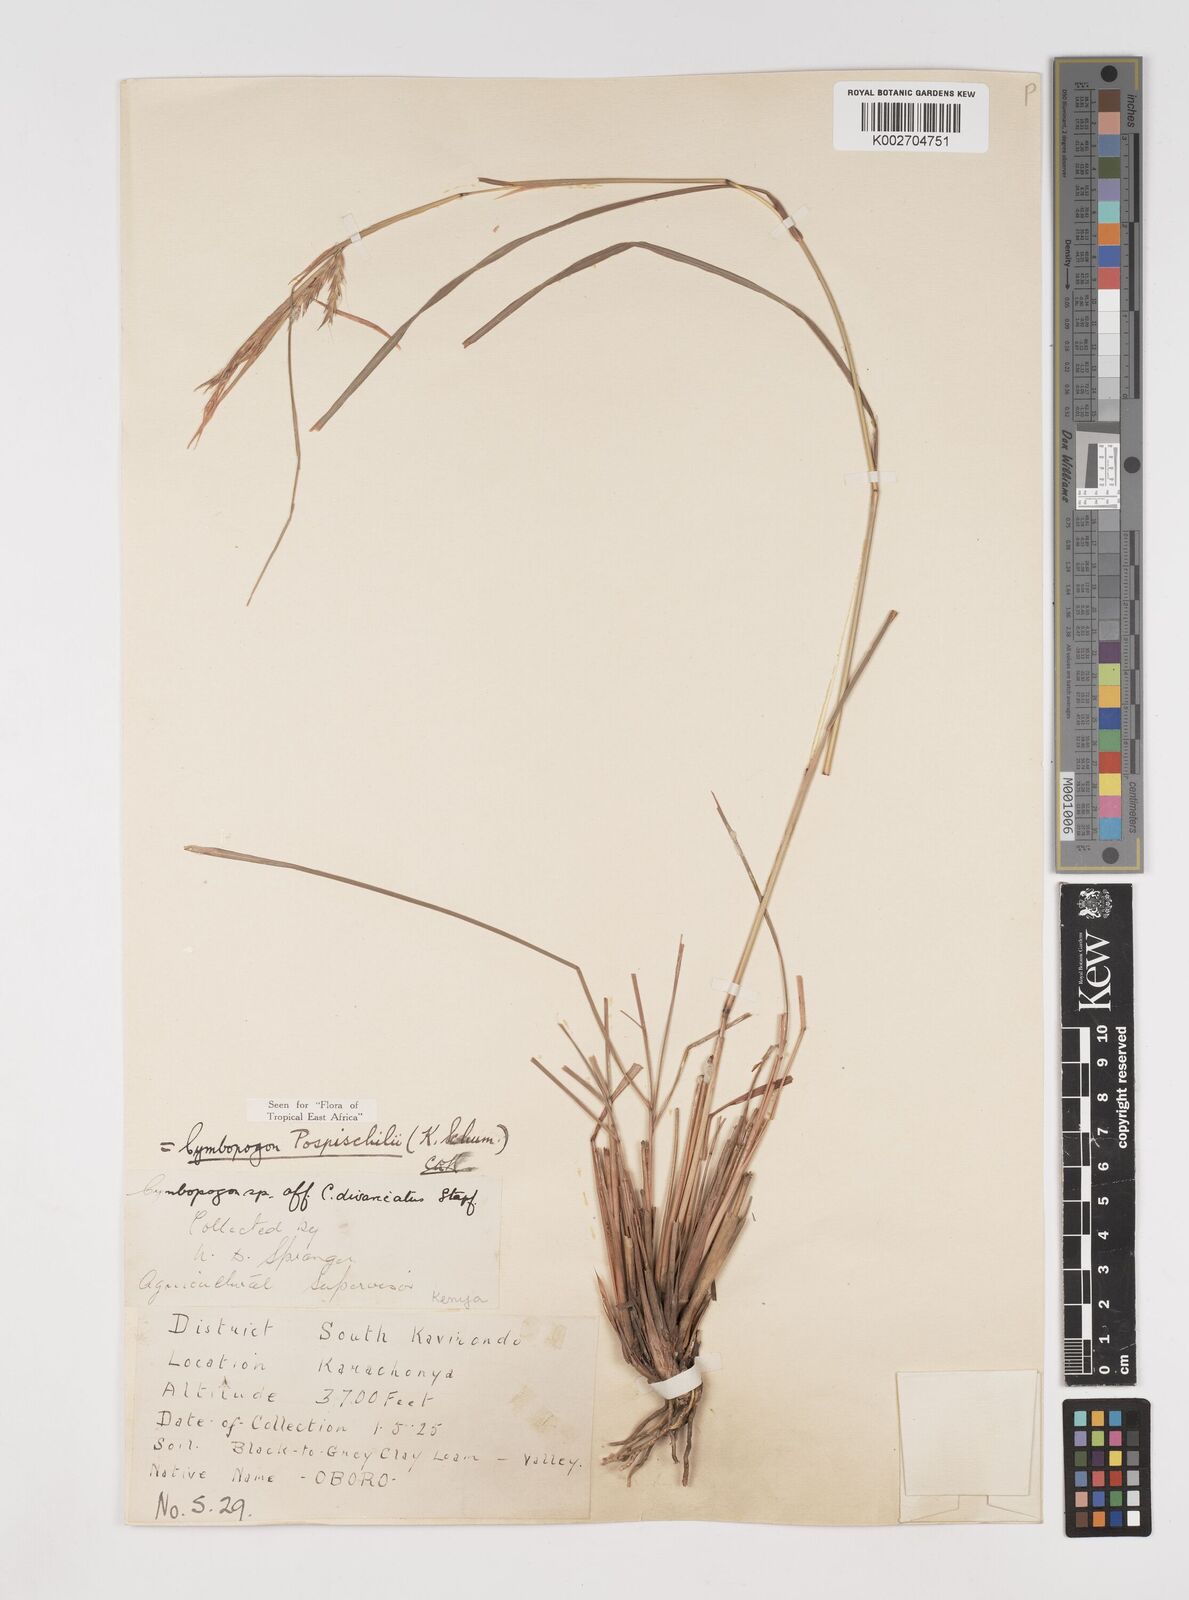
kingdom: Plantae
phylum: Tracheophyta
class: Liliopsida
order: Poales
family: Poaceae
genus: Cymbopogon
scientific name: Cymbopogon pospischilii
